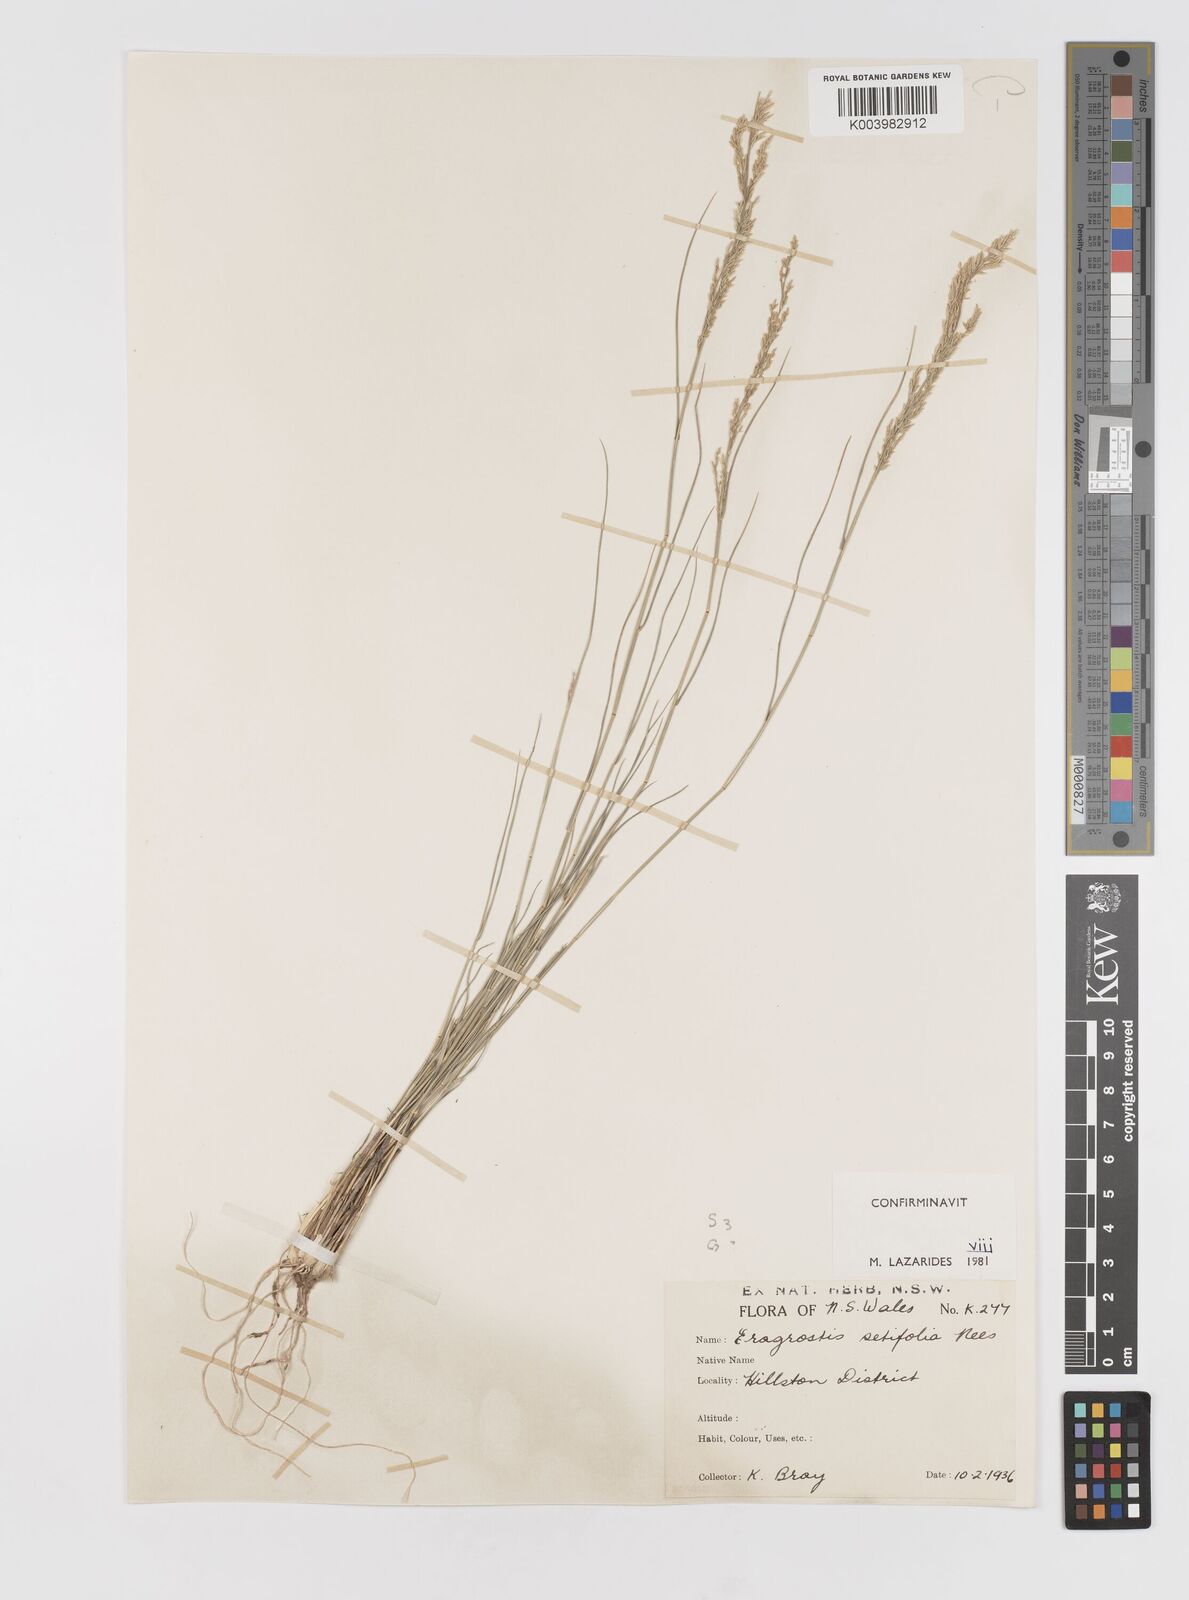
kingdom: Plantae
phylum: Tracheophyta
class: Liliopsida
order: Poales
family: Poaceae
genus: Eragrostis
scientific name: Eragrostis setifolia
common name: Bristleleaf lovegrass
